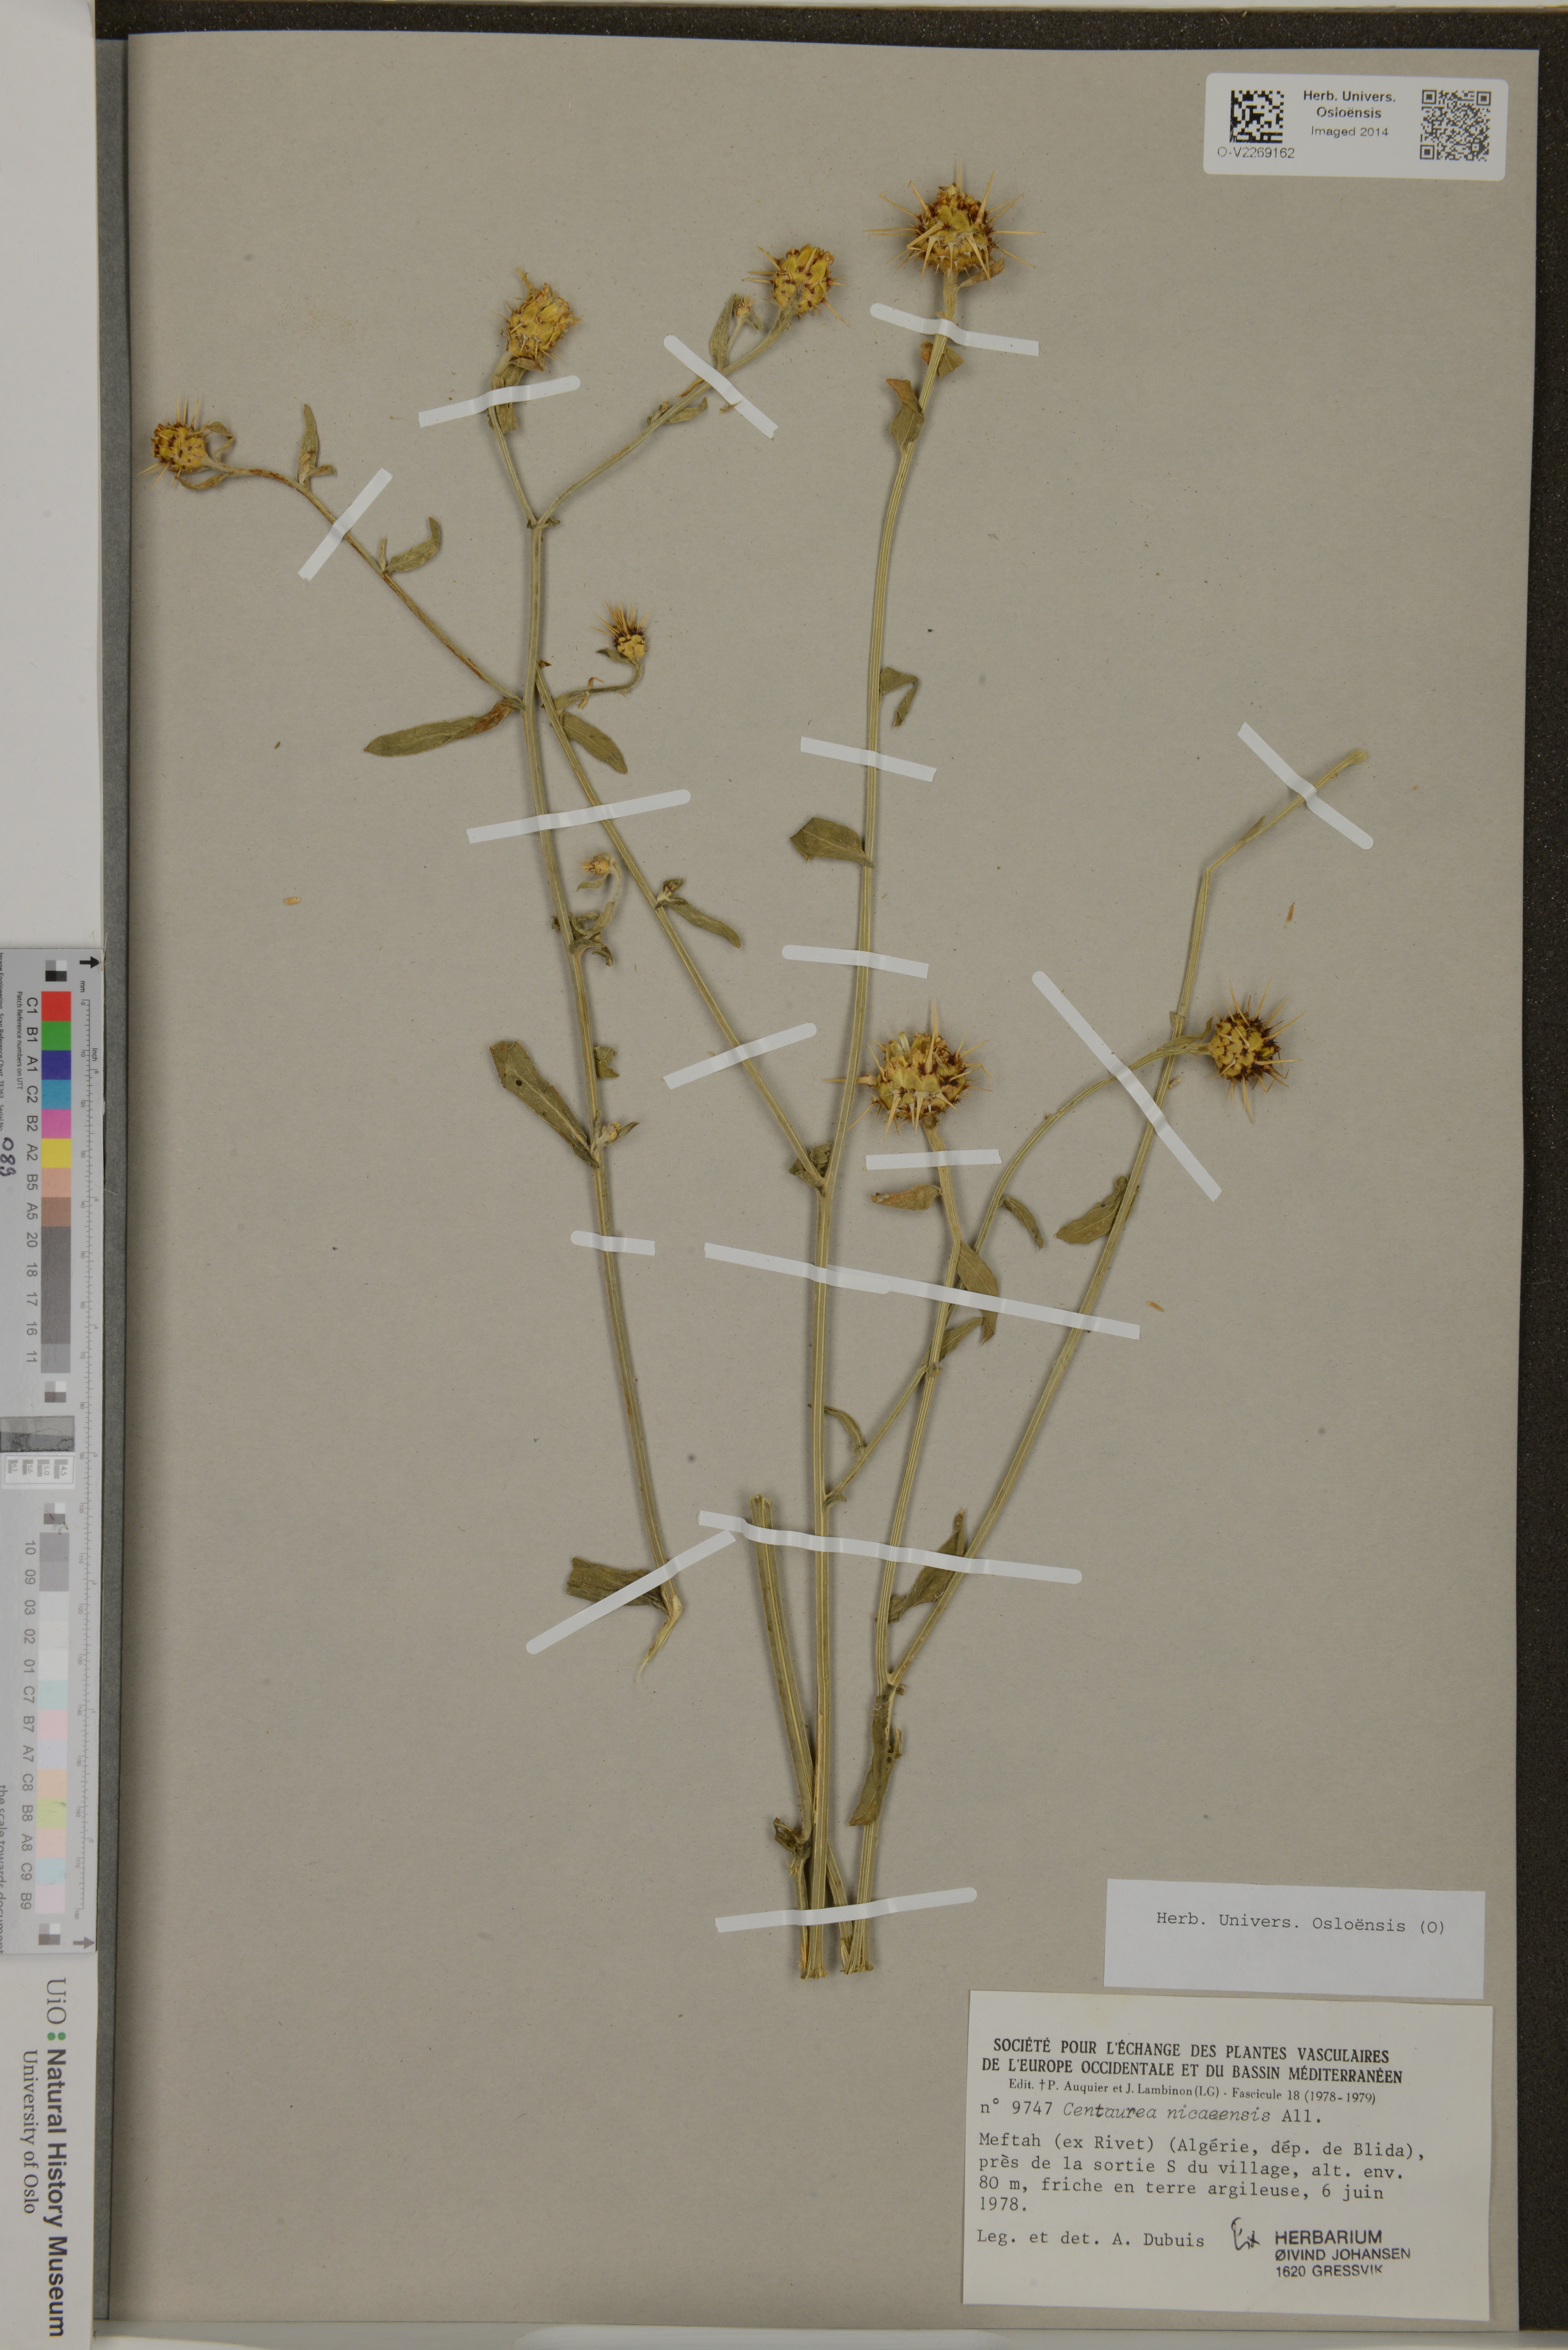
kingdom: Plantae
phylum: Tracheophyta
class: Magnoliopsida
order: Asterales
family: Asteraceae
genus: Centaurea
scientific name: Centaurea sicula
